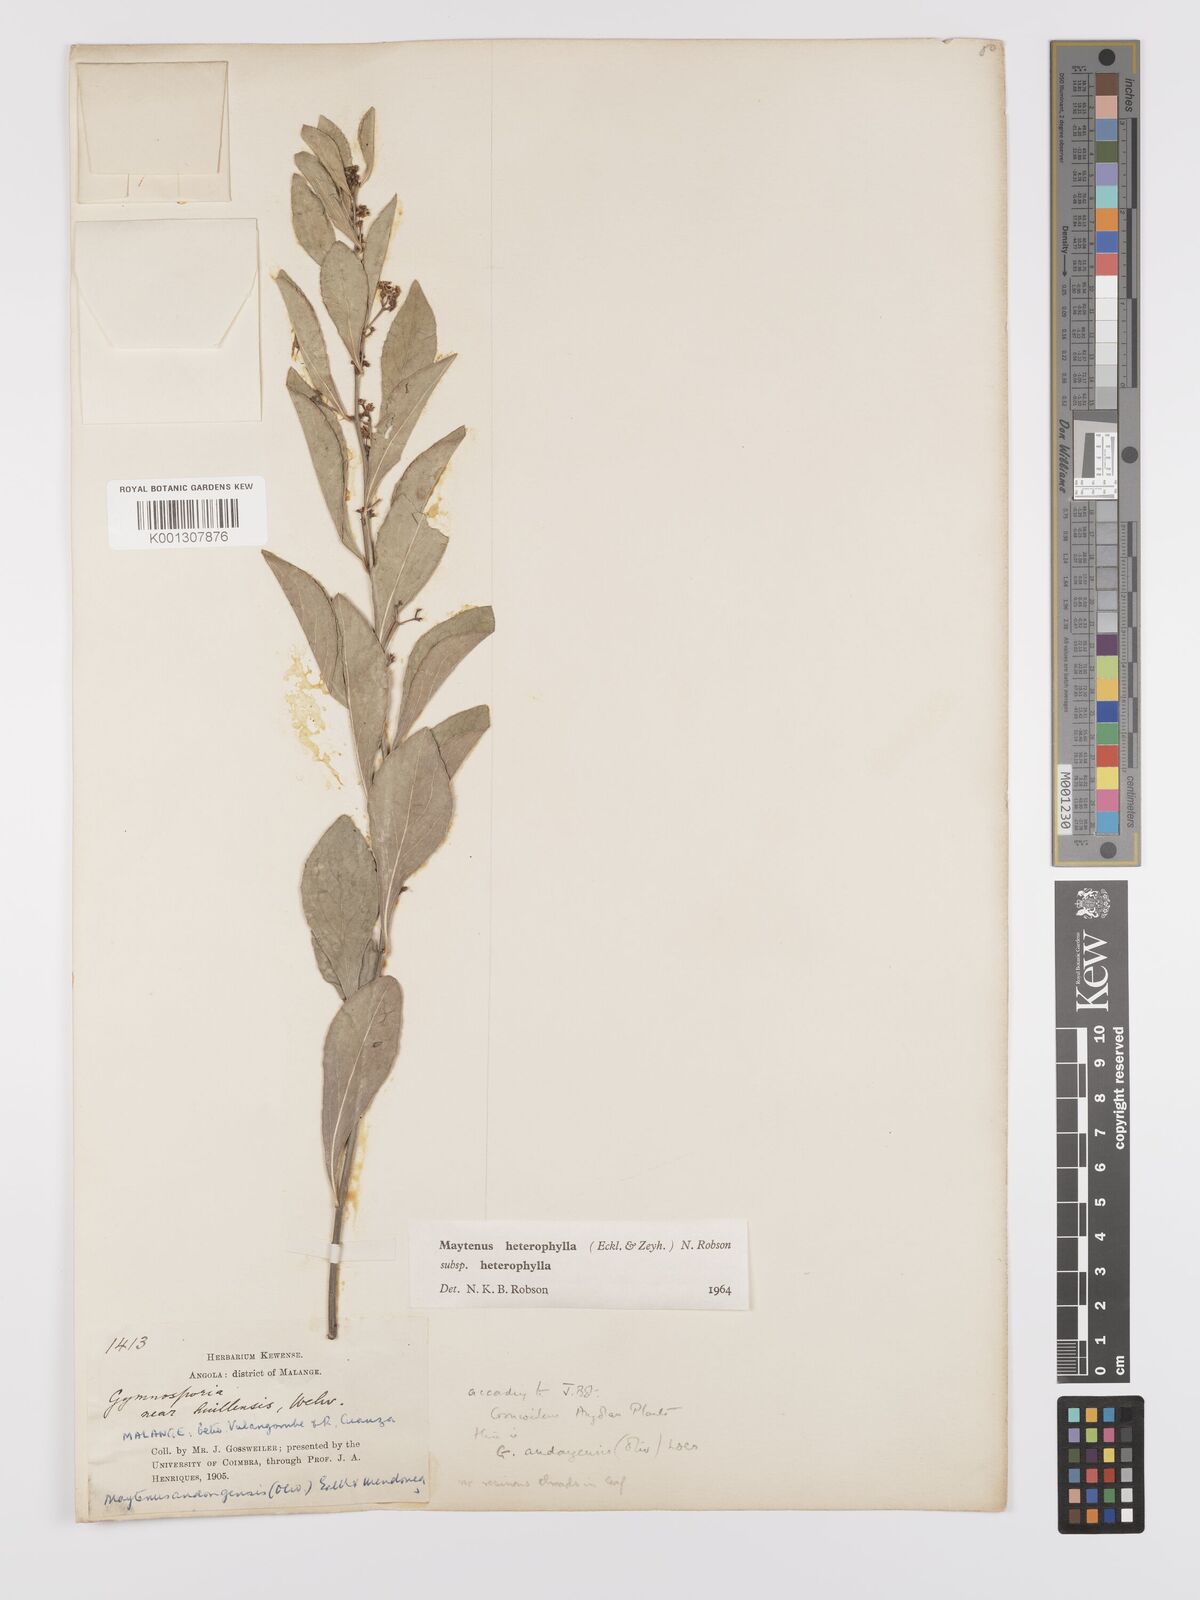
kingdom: Plantae
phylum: Tracheophyta
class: Magnoliopsida
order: Celastrales
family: Celastraceae
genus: Gymnosporia
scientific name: Gymnosporia heterophylla
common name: Angle-stem spikethorn
